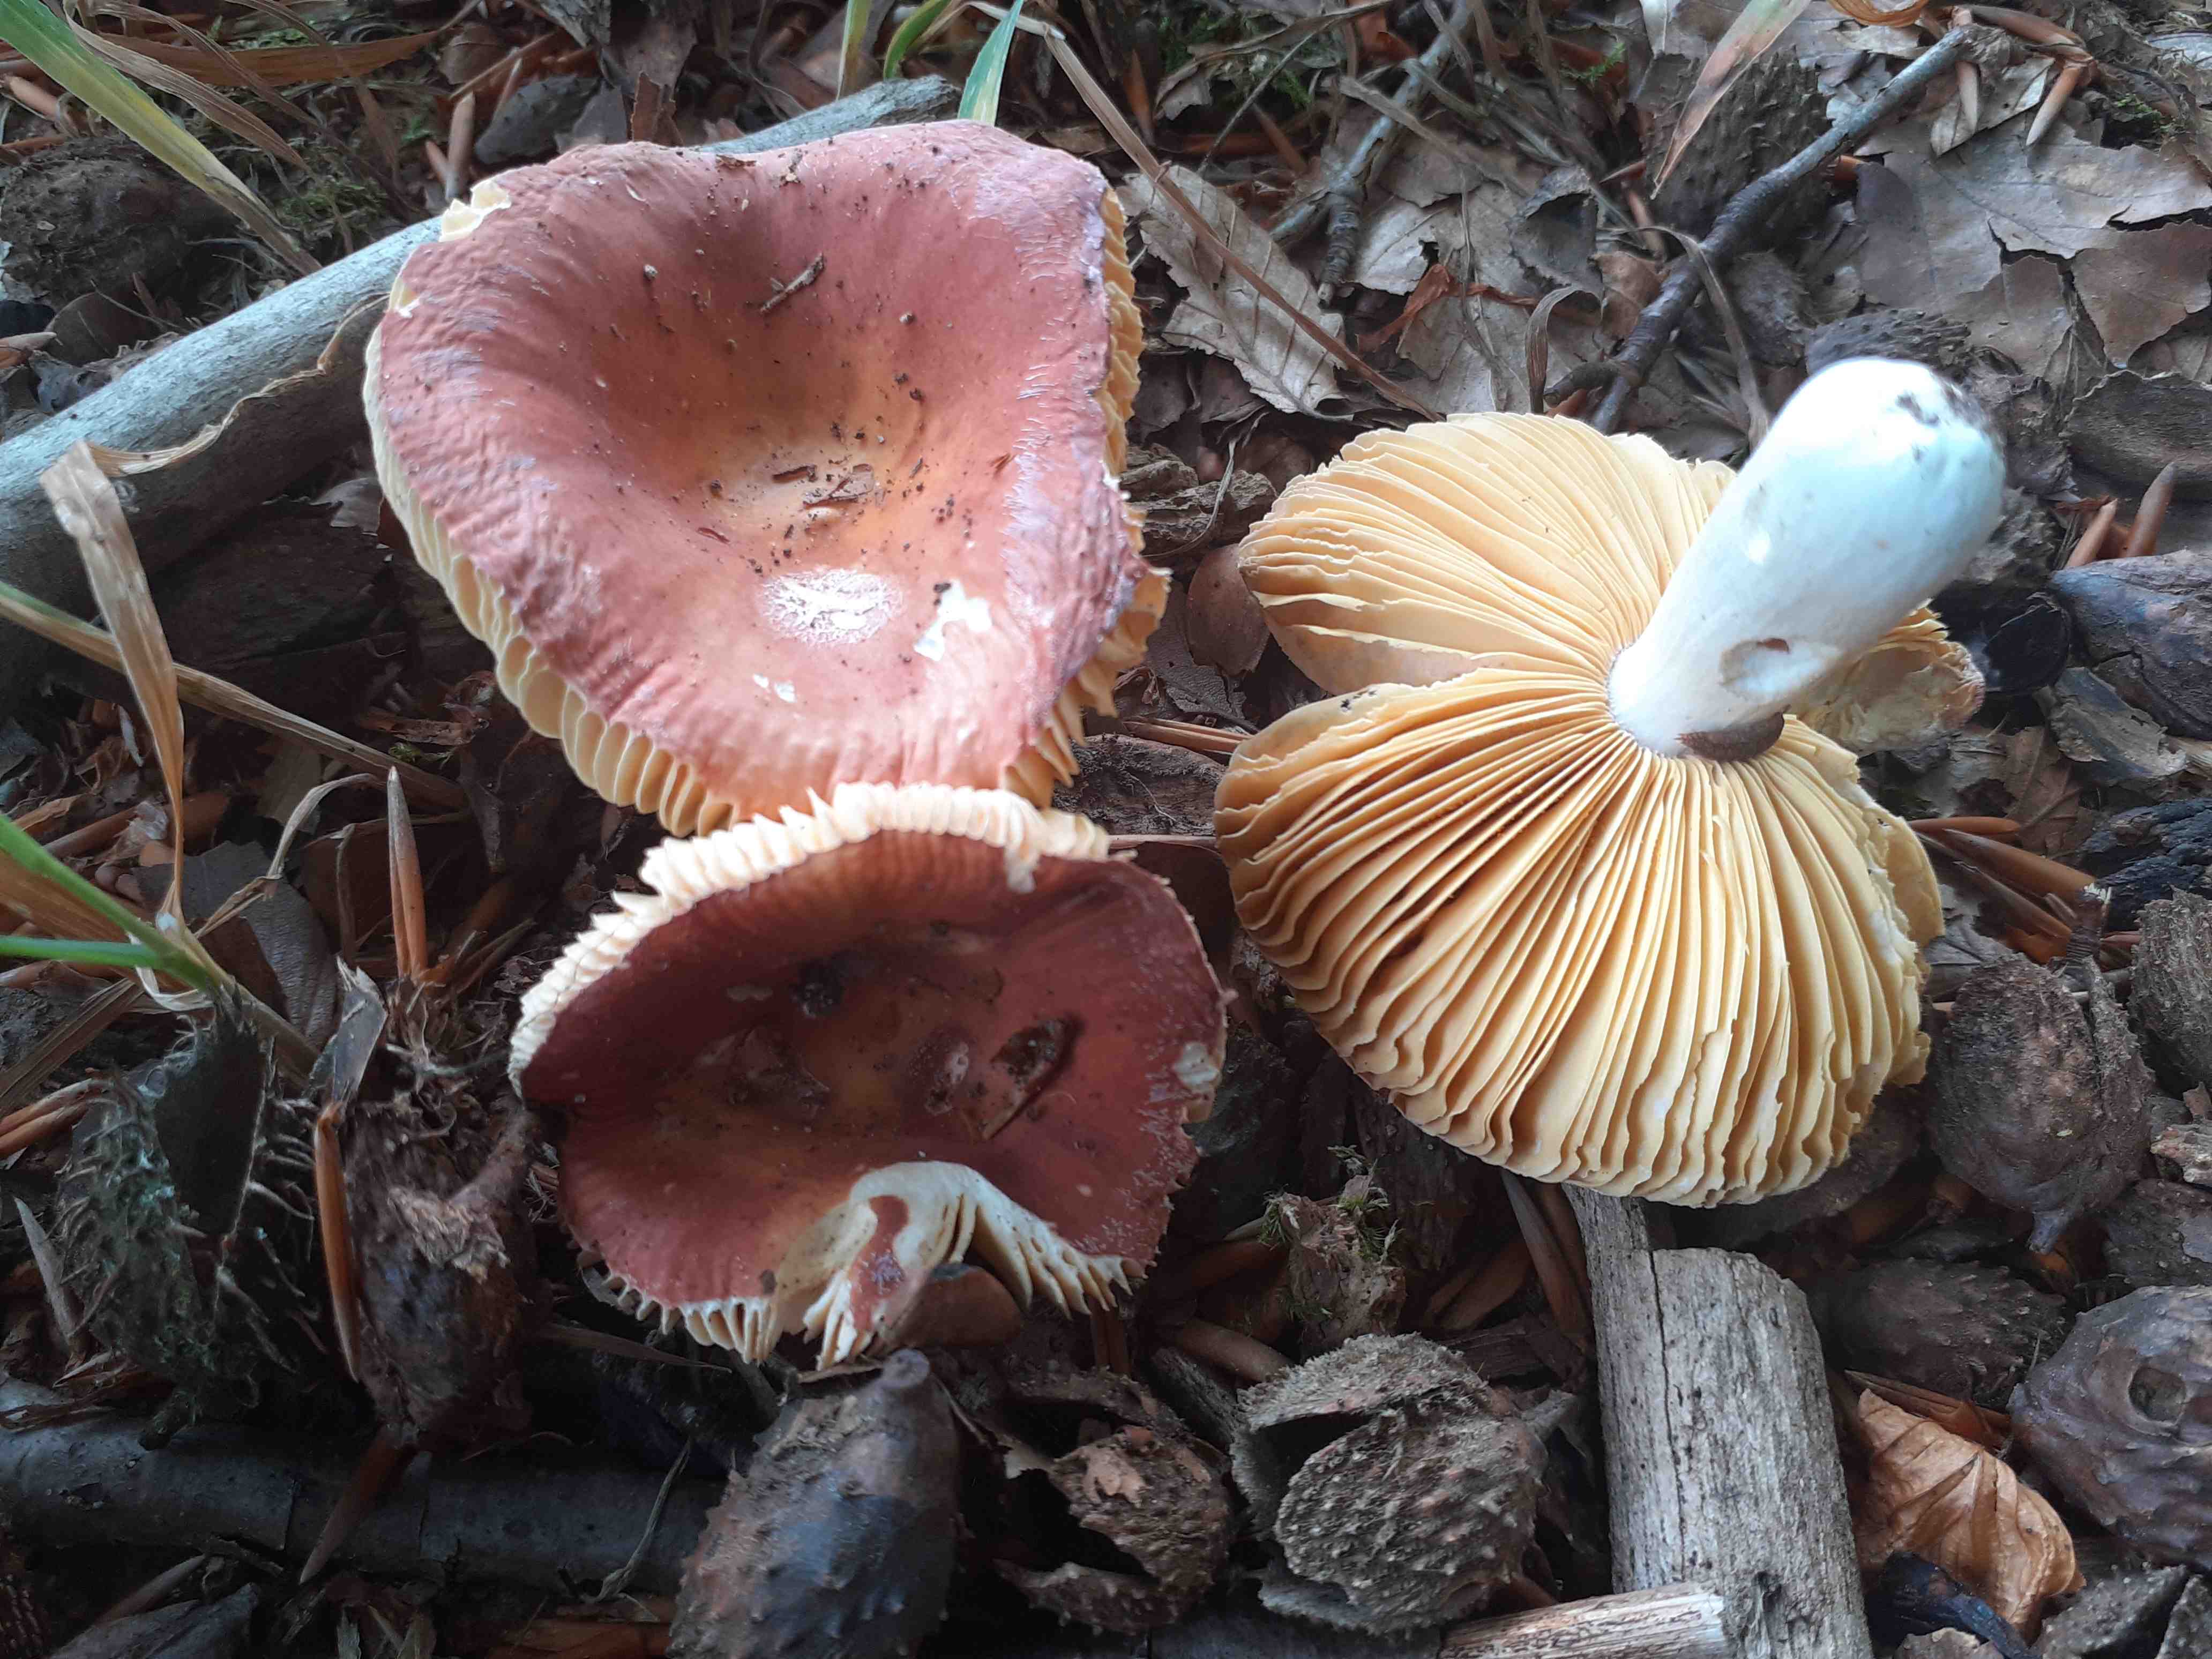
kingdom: Fungi
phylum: Basidiomycota
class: Agaricomycetes
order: Russulales
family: Russulaceae
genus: Russula
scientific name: Russula laeta
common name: orangerosa skørhat
